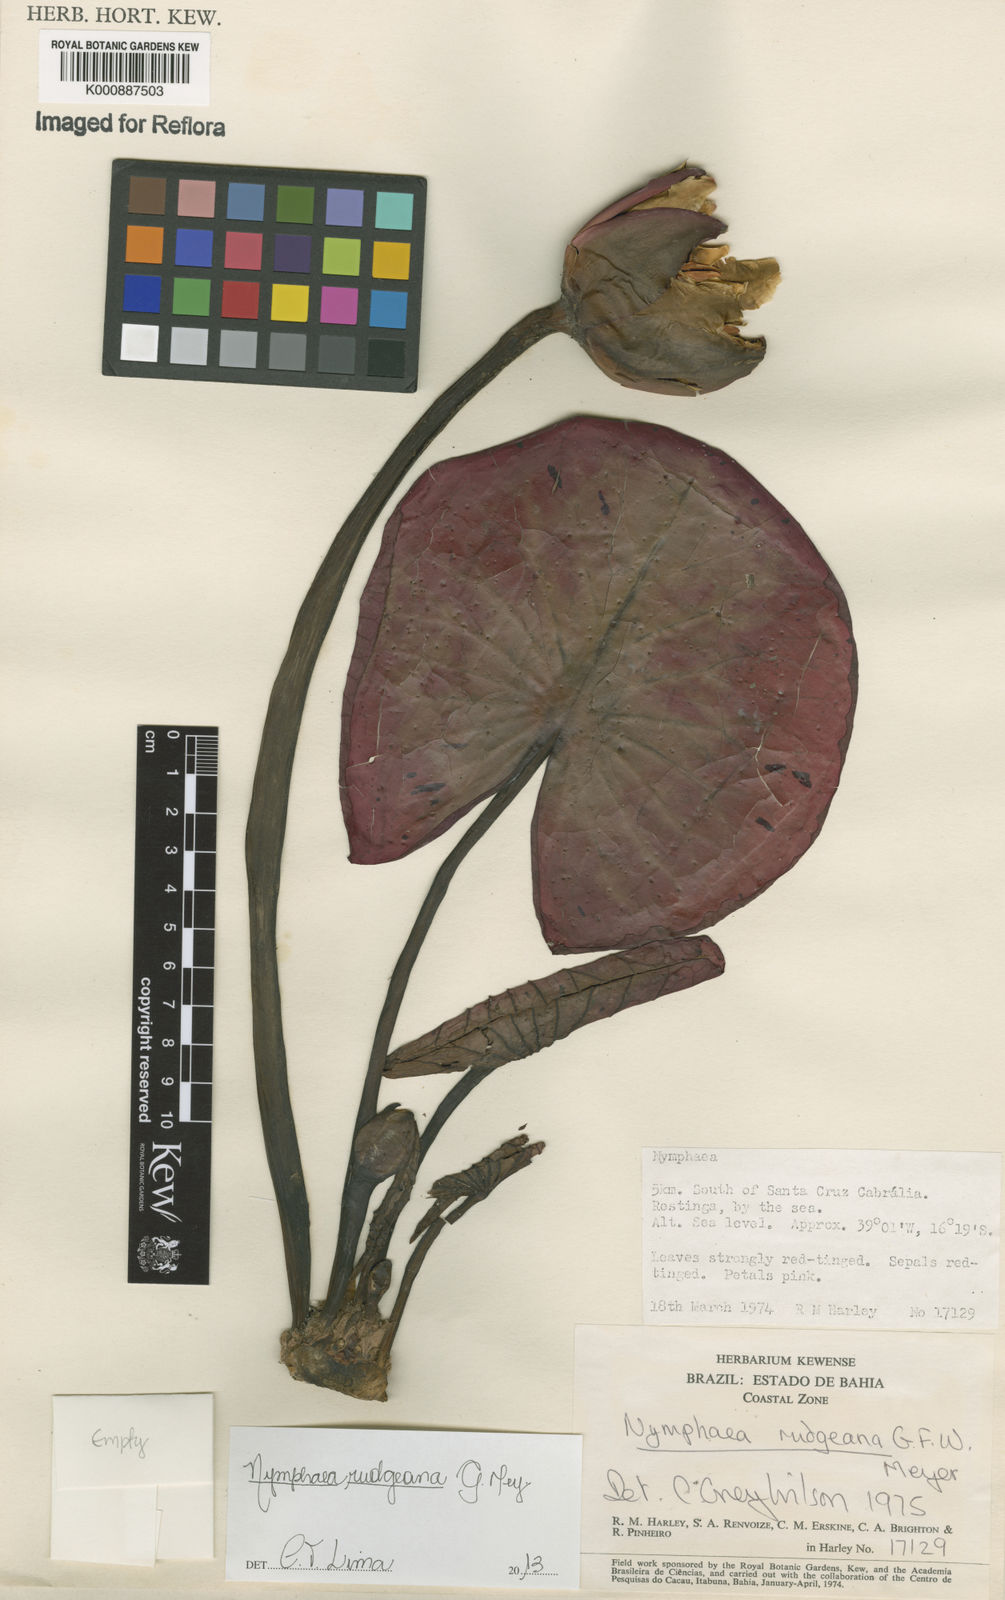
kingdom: Plantae
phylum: Tracheophyta
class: Magnoliopsida
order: Nymphaeales
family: Nymphaeaceae
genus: Nymphaea
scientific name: Nymphaea rudgeana
